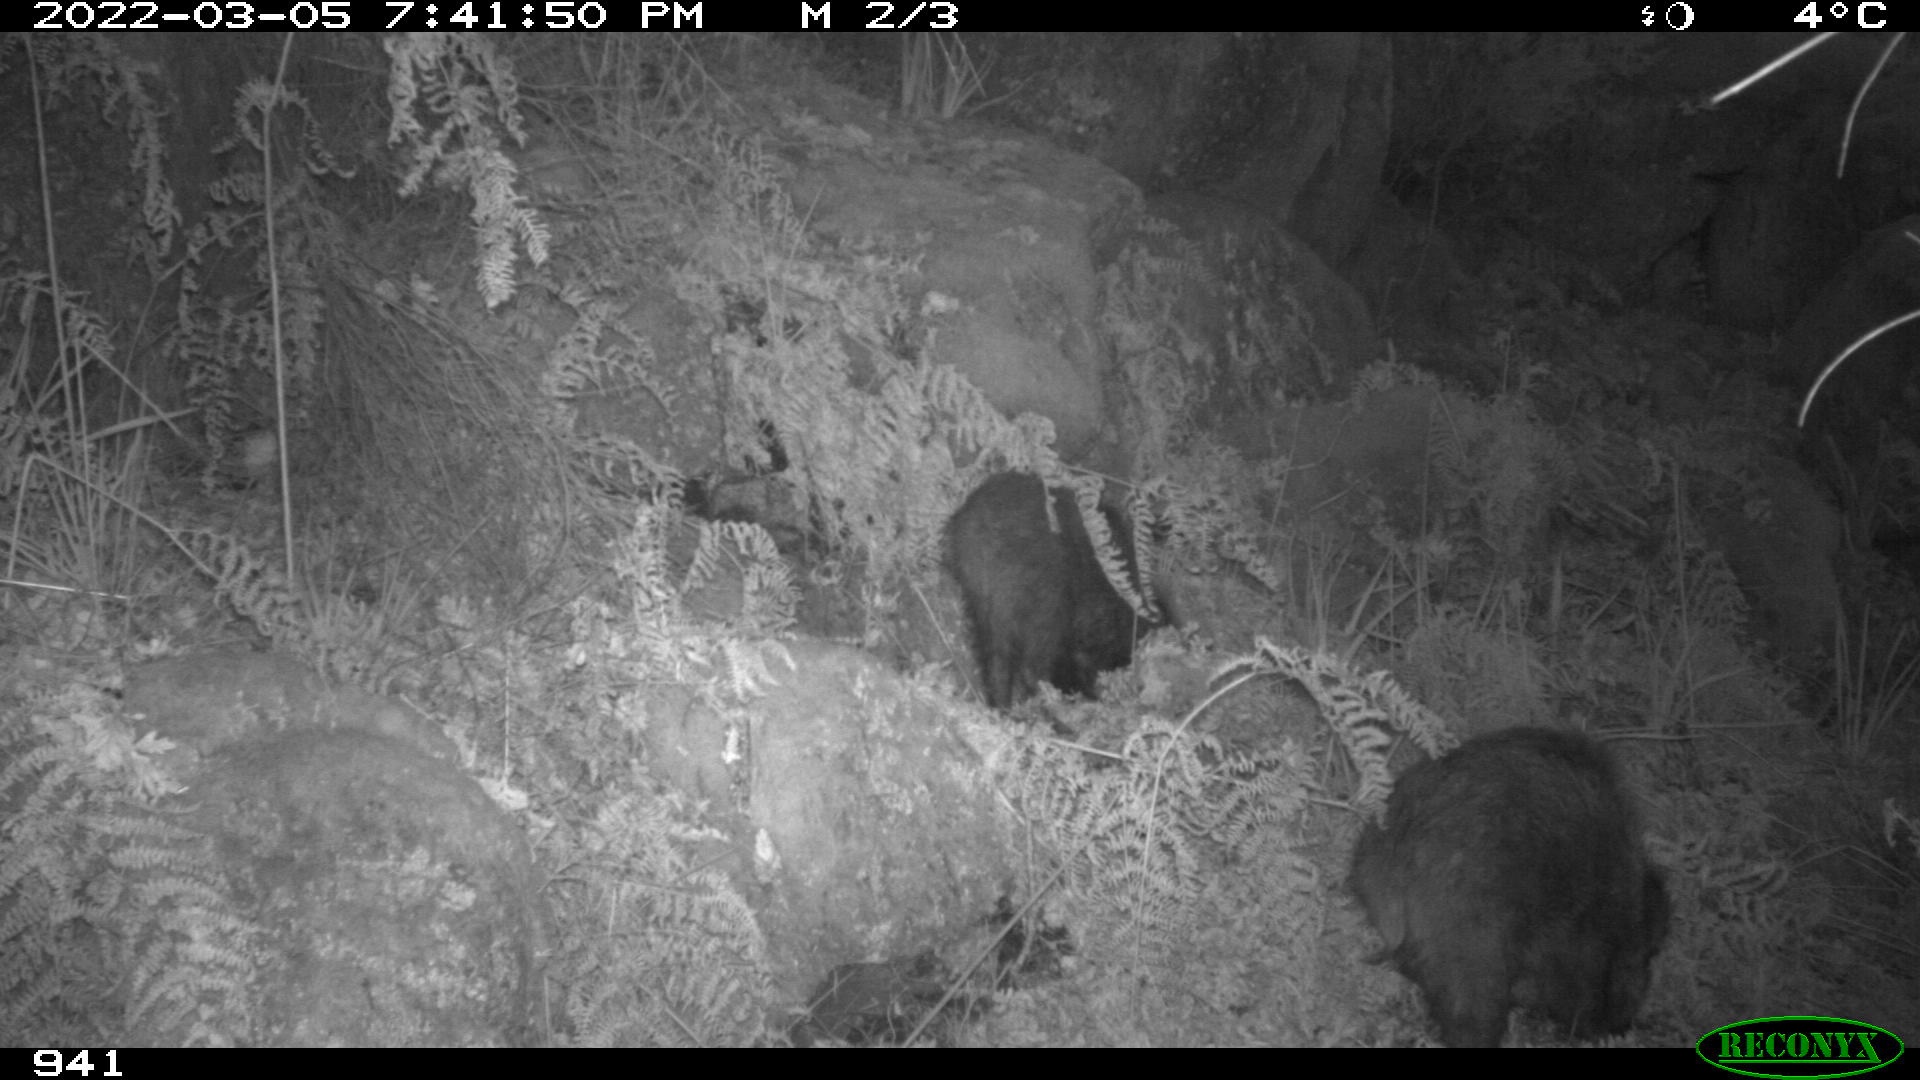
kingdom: Animalia
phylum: Chordata
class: Mammalia
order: Artiodactyla
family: Suidae
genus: Sus
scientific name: Sus scrofa
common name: Wild boar
